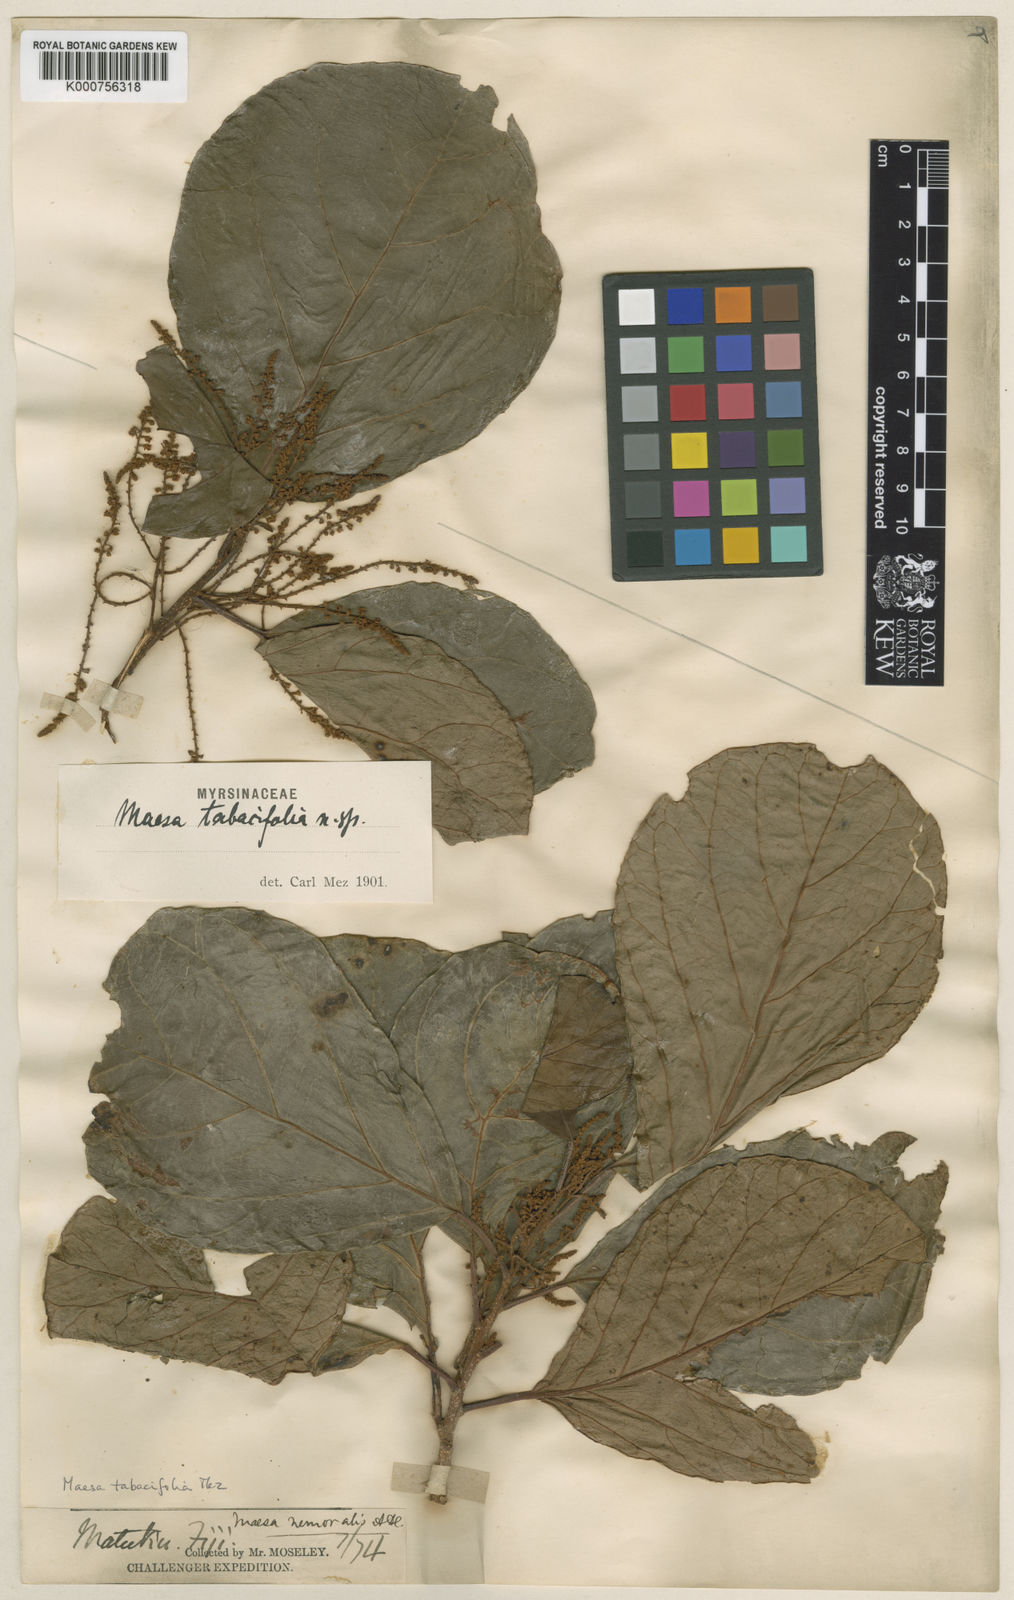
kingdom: Plantae
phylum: Tracheophyta
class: Magnoliopsida
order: Ericales
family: Primulaceae
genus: Maesa
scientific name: Maesa tabacifolia
